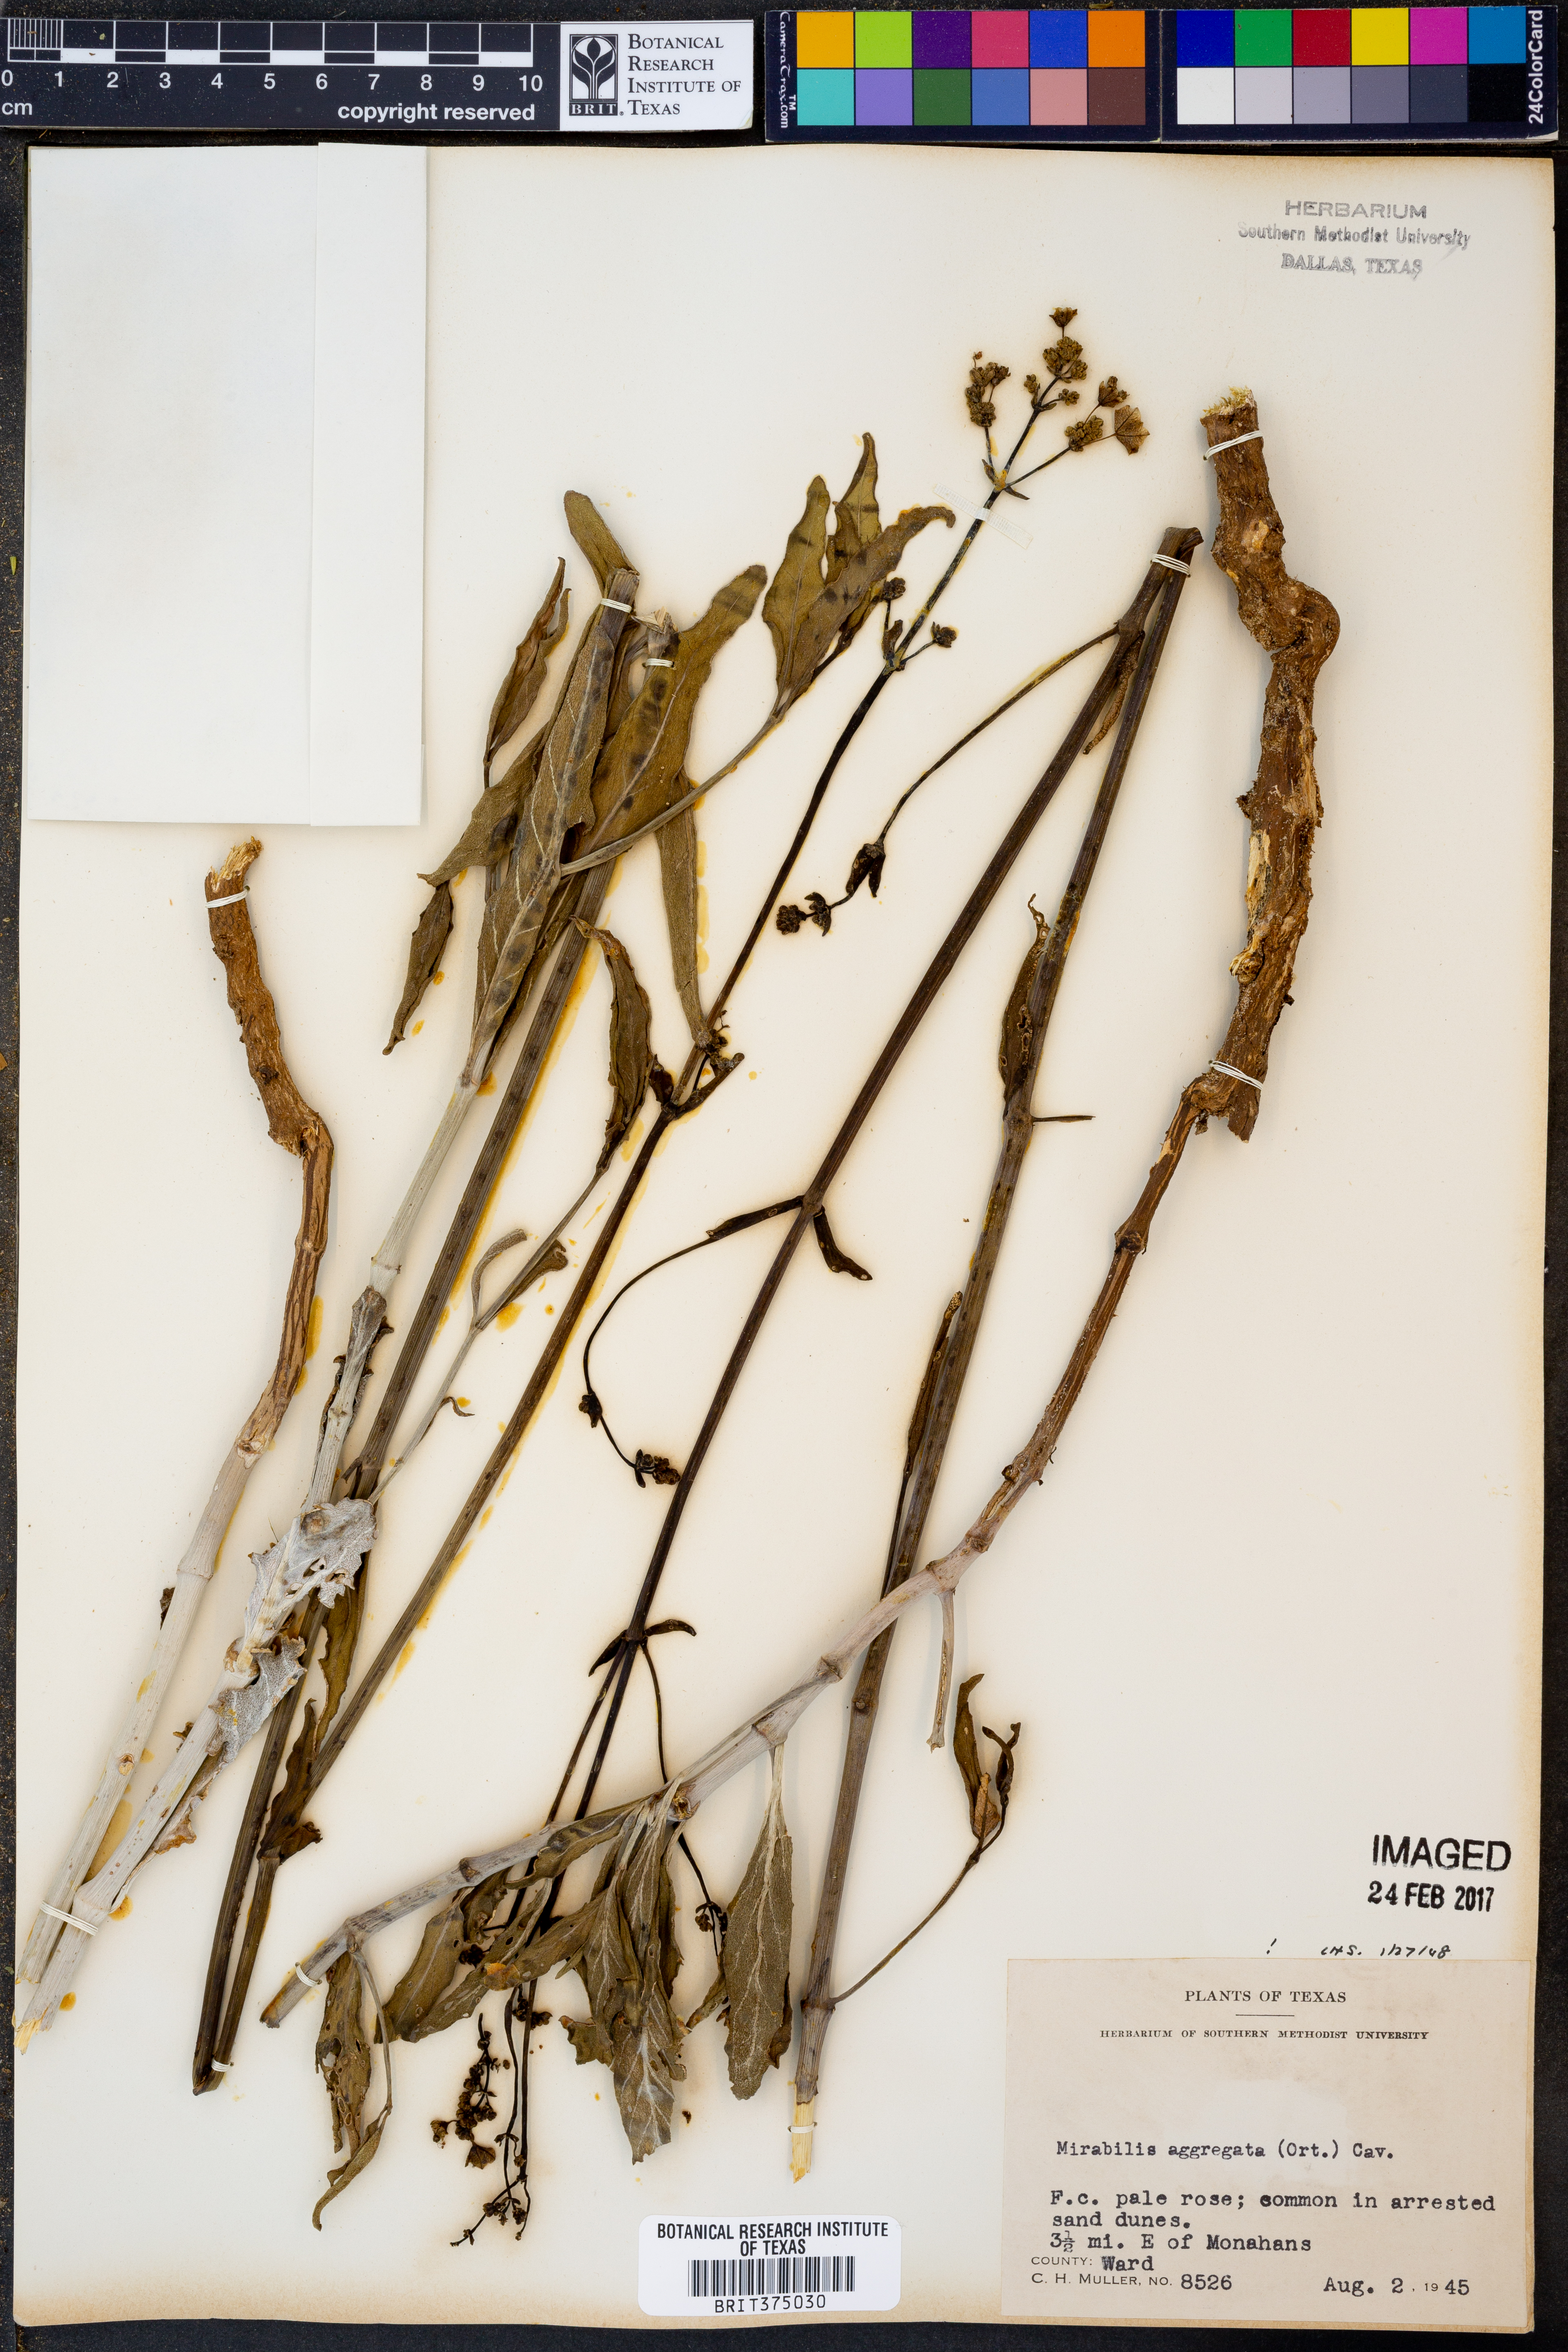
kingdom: Plantae
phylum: Tracheophyta
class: Magnoliopsida
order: Caryophyllales
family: Nyctaginaceae
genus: Mirabilis
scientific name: Mirabilis aggregata
